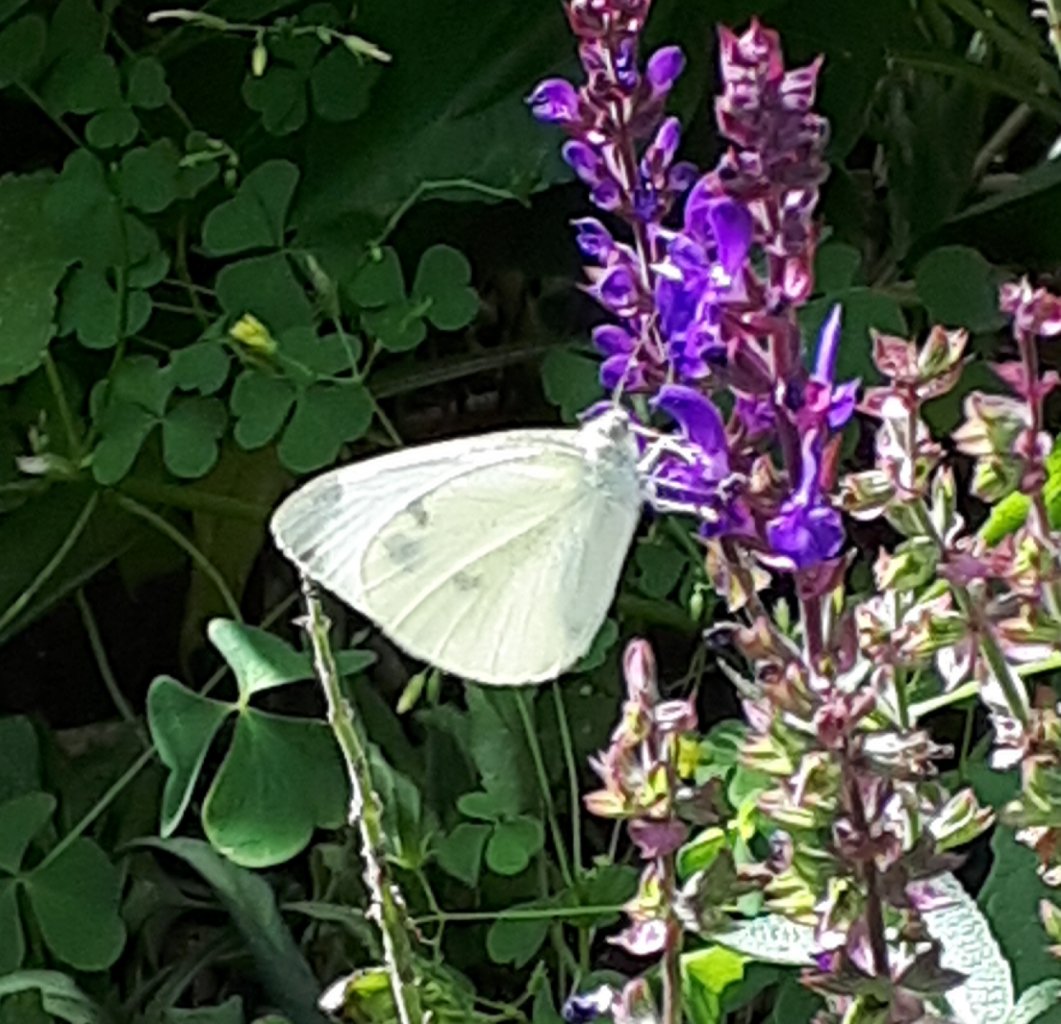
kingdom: Animalia
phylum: Arthropoda
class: Insecta
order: Lepidoptera
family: Pieridae
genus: Pieris
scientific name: Pieris rapae
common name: Cabbage White
